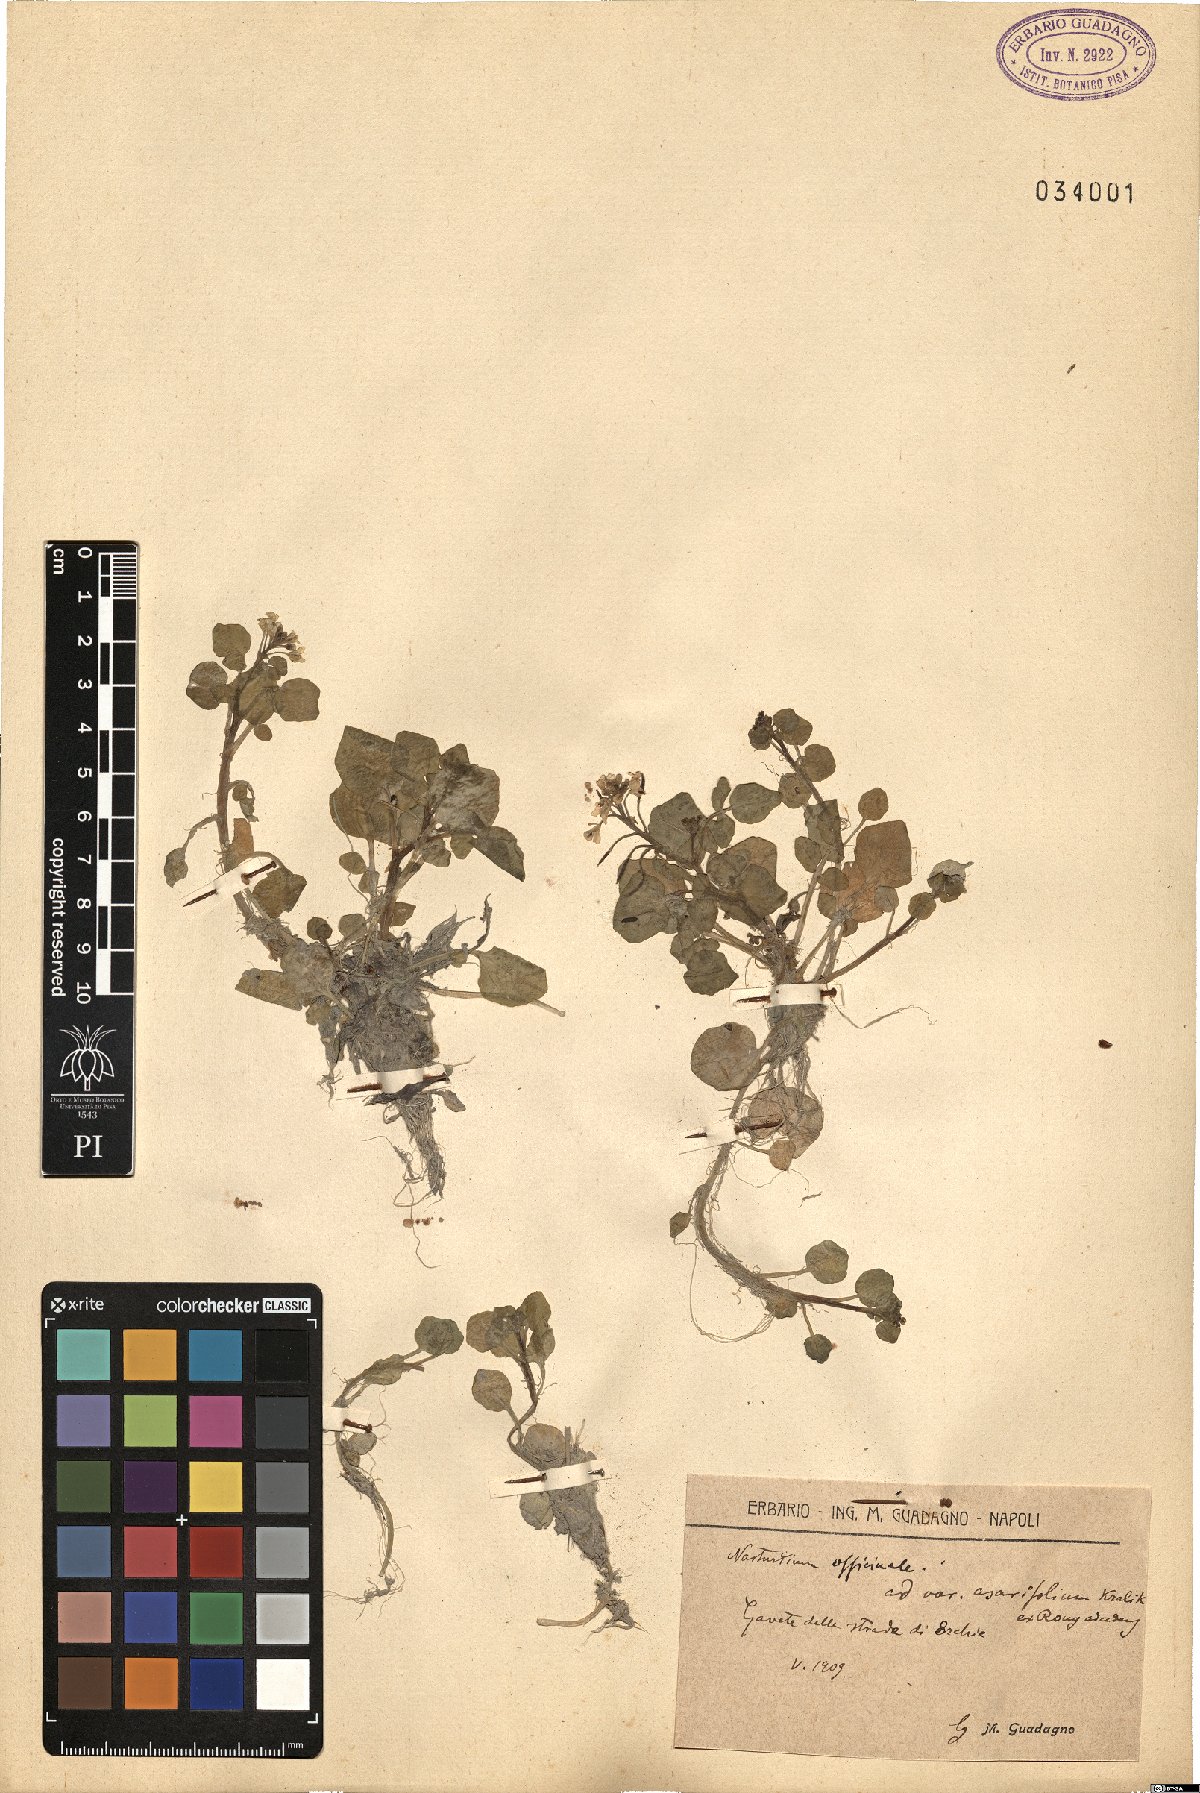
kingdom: Plantae
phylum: Tracheophyta
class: Magnoliopsida
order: Brassicales
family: Brassicaceae
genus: Nasturtium
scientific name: Nasturtium officinale
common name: Watercress
